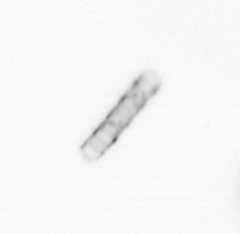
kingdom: Chromista
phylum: Ochrophyta
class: Bacillariophyceae
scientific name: Bacillariophyceae
